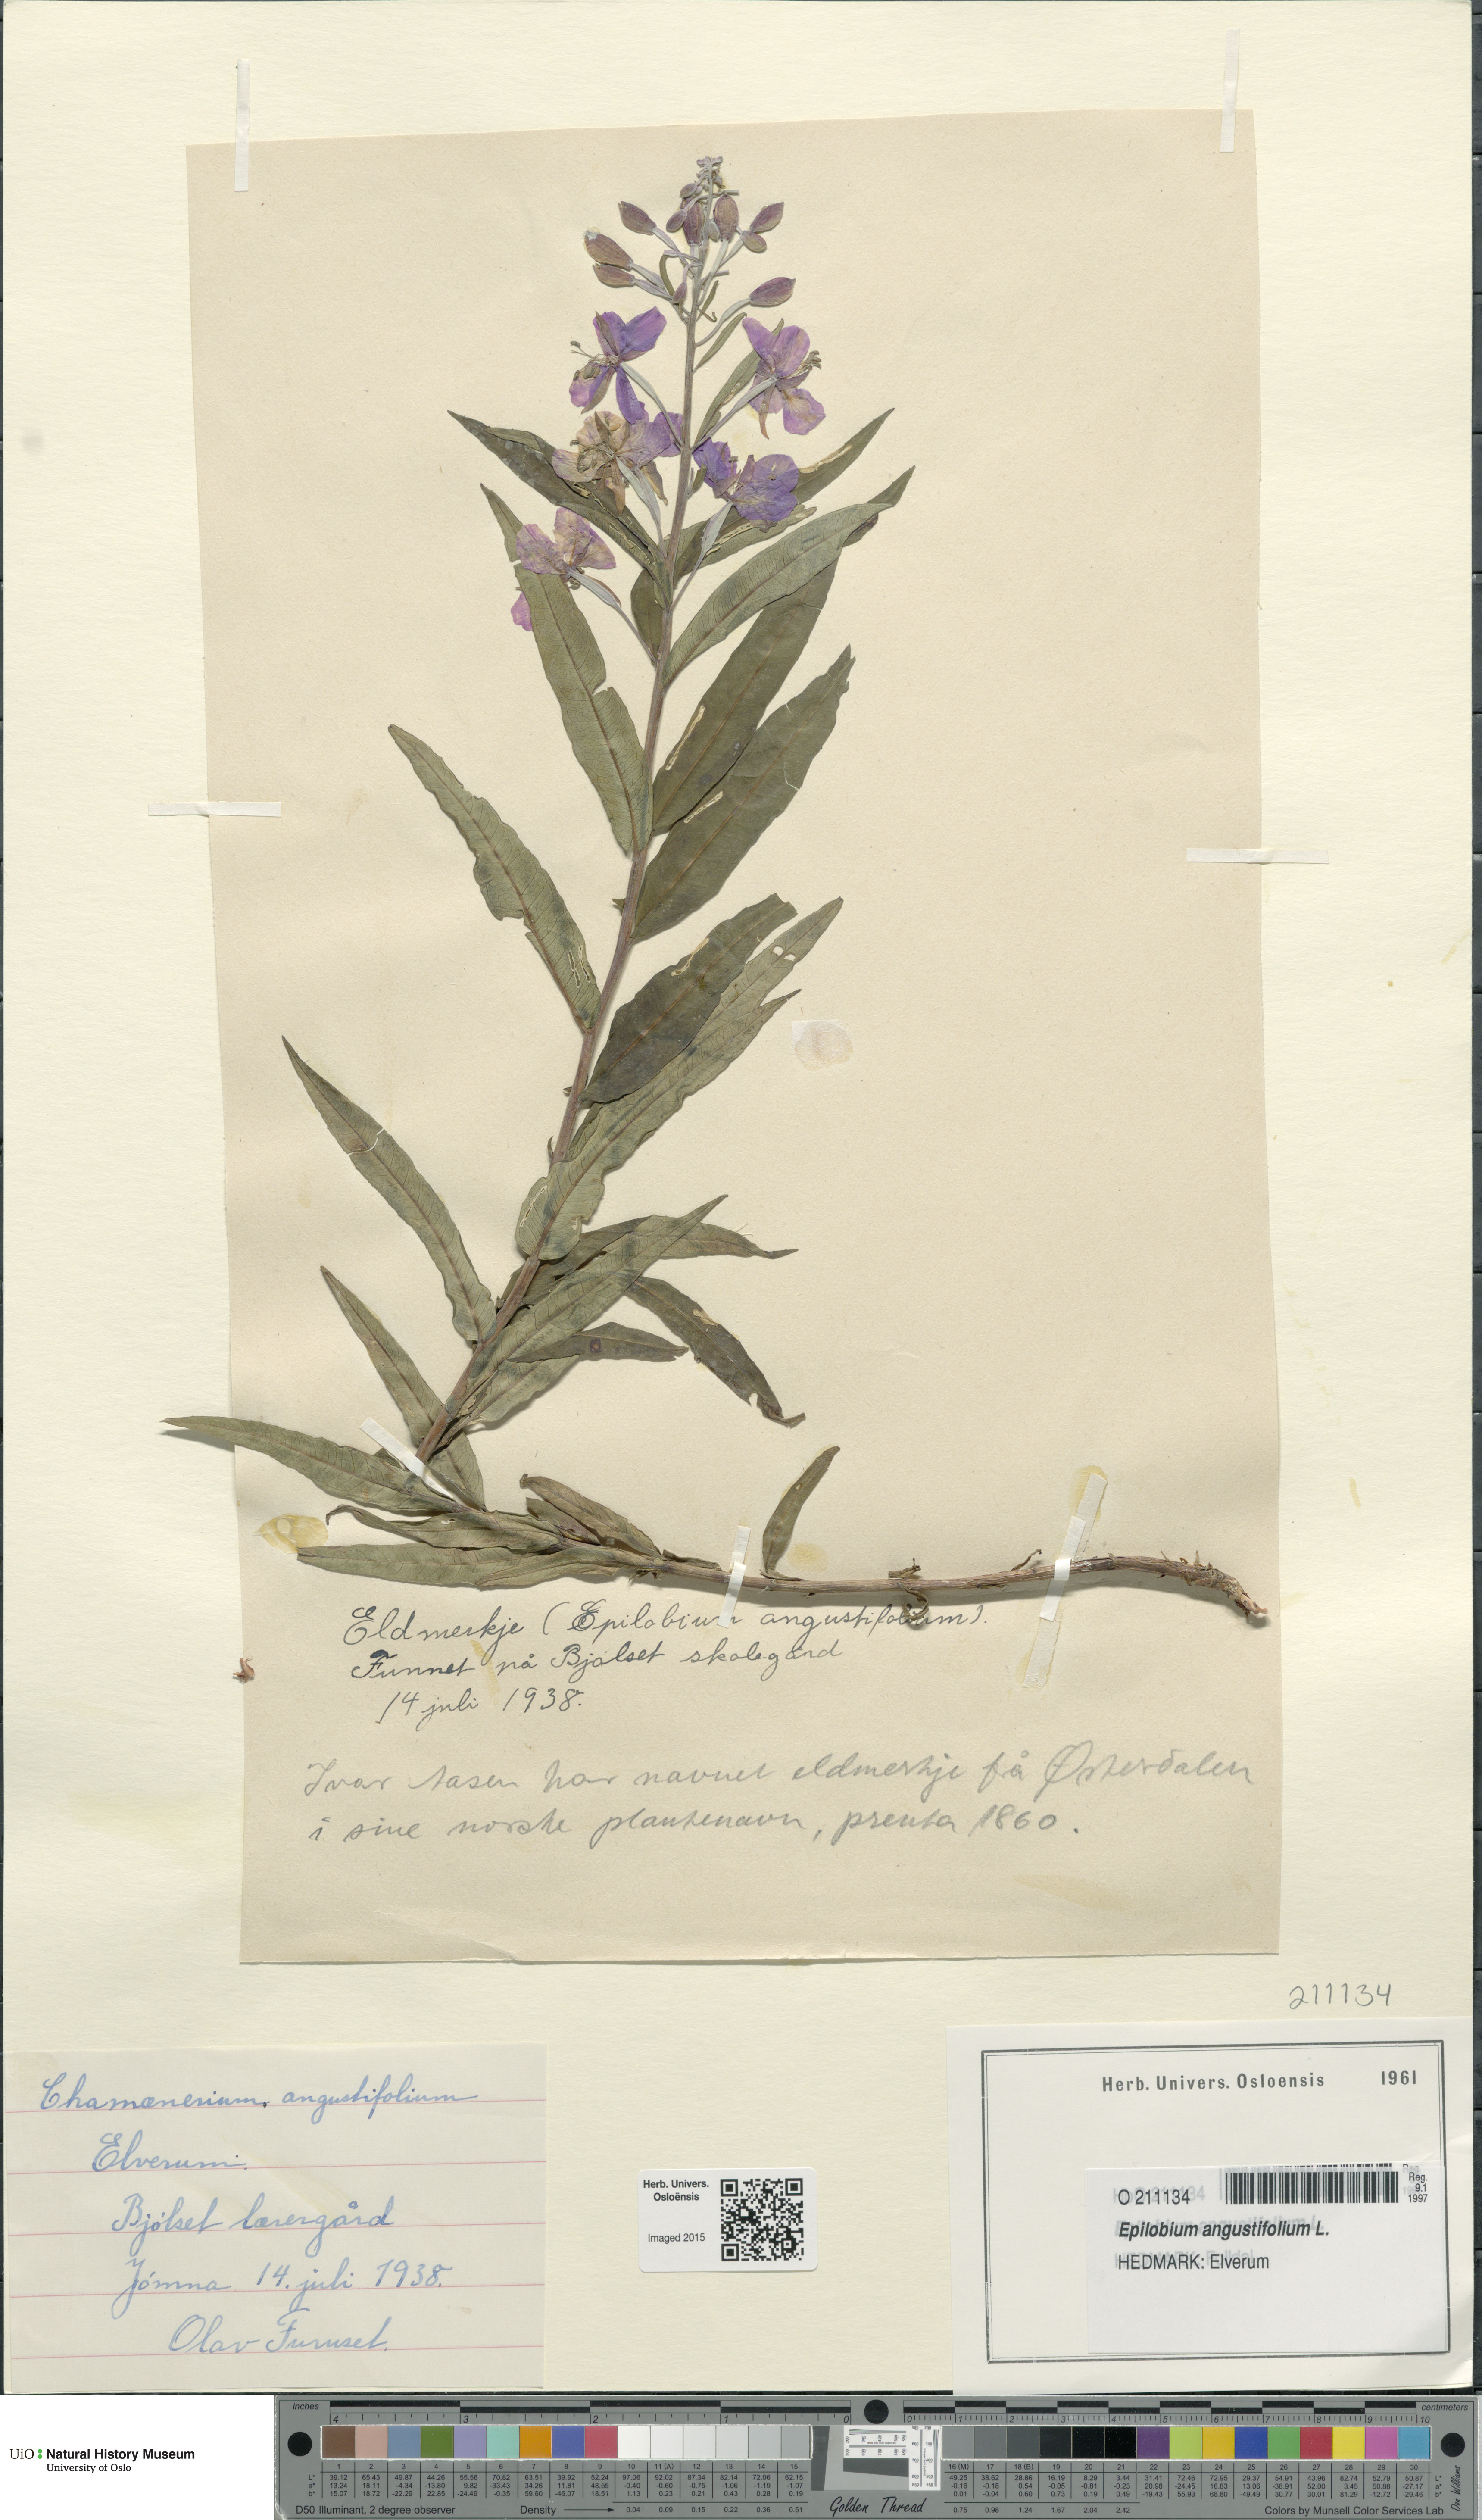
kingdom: Plantae
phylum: Tracheophyta
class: Magnoliopsida
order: Myrtales
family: Onagraceae
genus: Chamaenerion
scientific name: Chamaenerion angustifolium
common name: Fireweed
